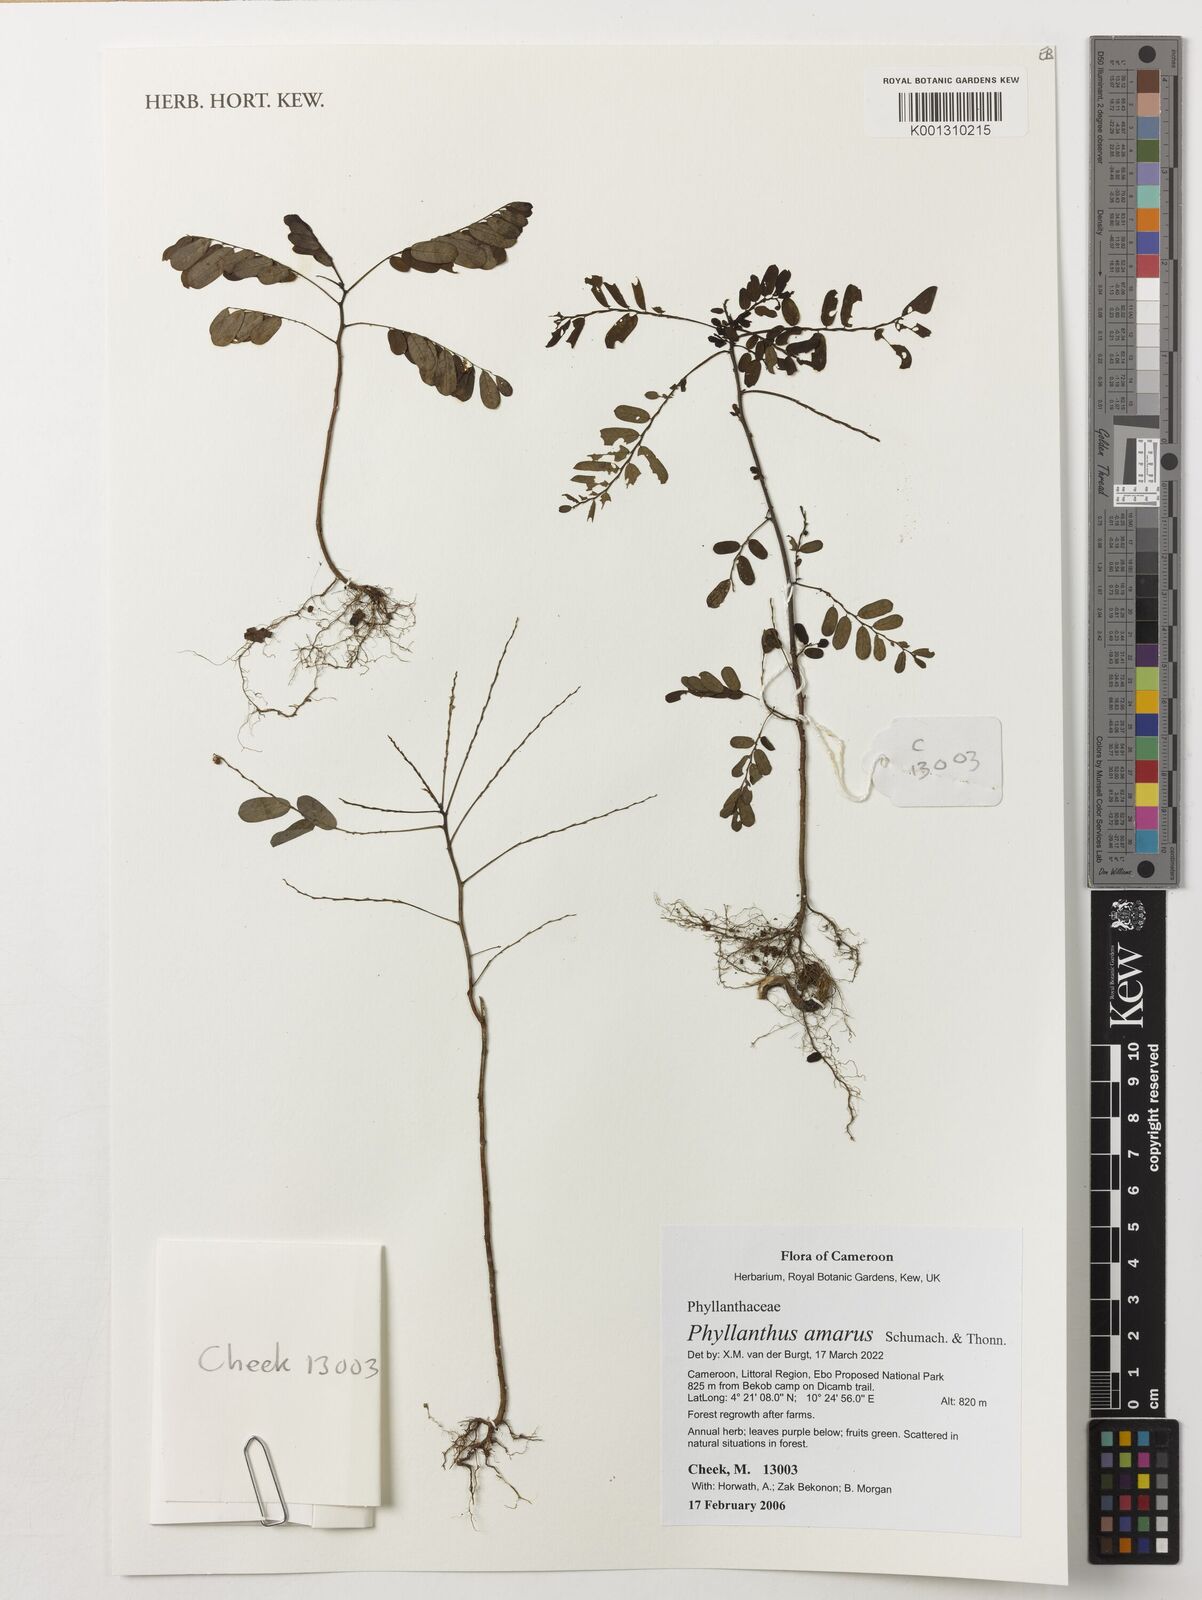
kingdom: Plantae
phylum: Tracheophyta
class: Magnoliopsida
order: Malpighiales
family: Phyllanthaceae
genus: Phyllanthus
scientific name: Phyllanthus amarus
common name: Carry me seed
